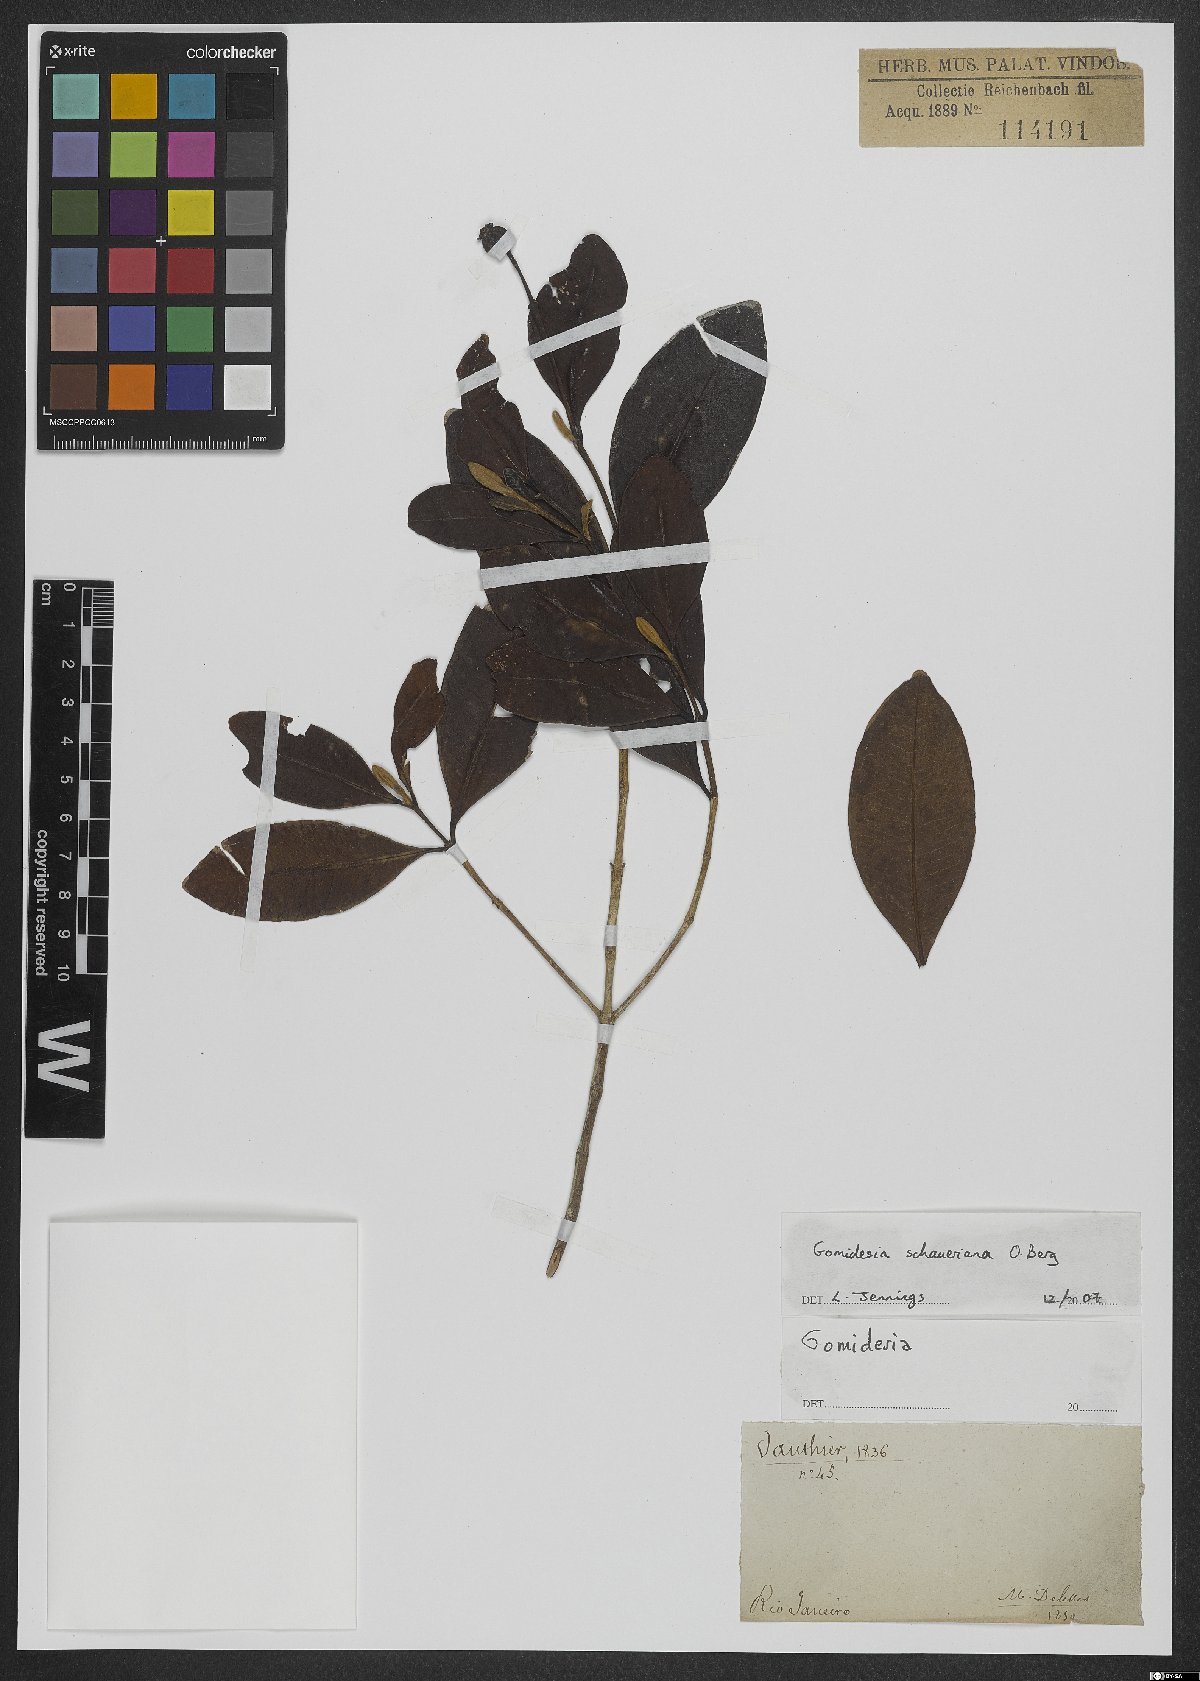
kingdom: Plantae
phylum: Tracheophyta
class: Magnoliopsida
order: Myrtales
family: Myrtaceae
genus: Myrcia
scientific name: Myrcia freyreissiana
